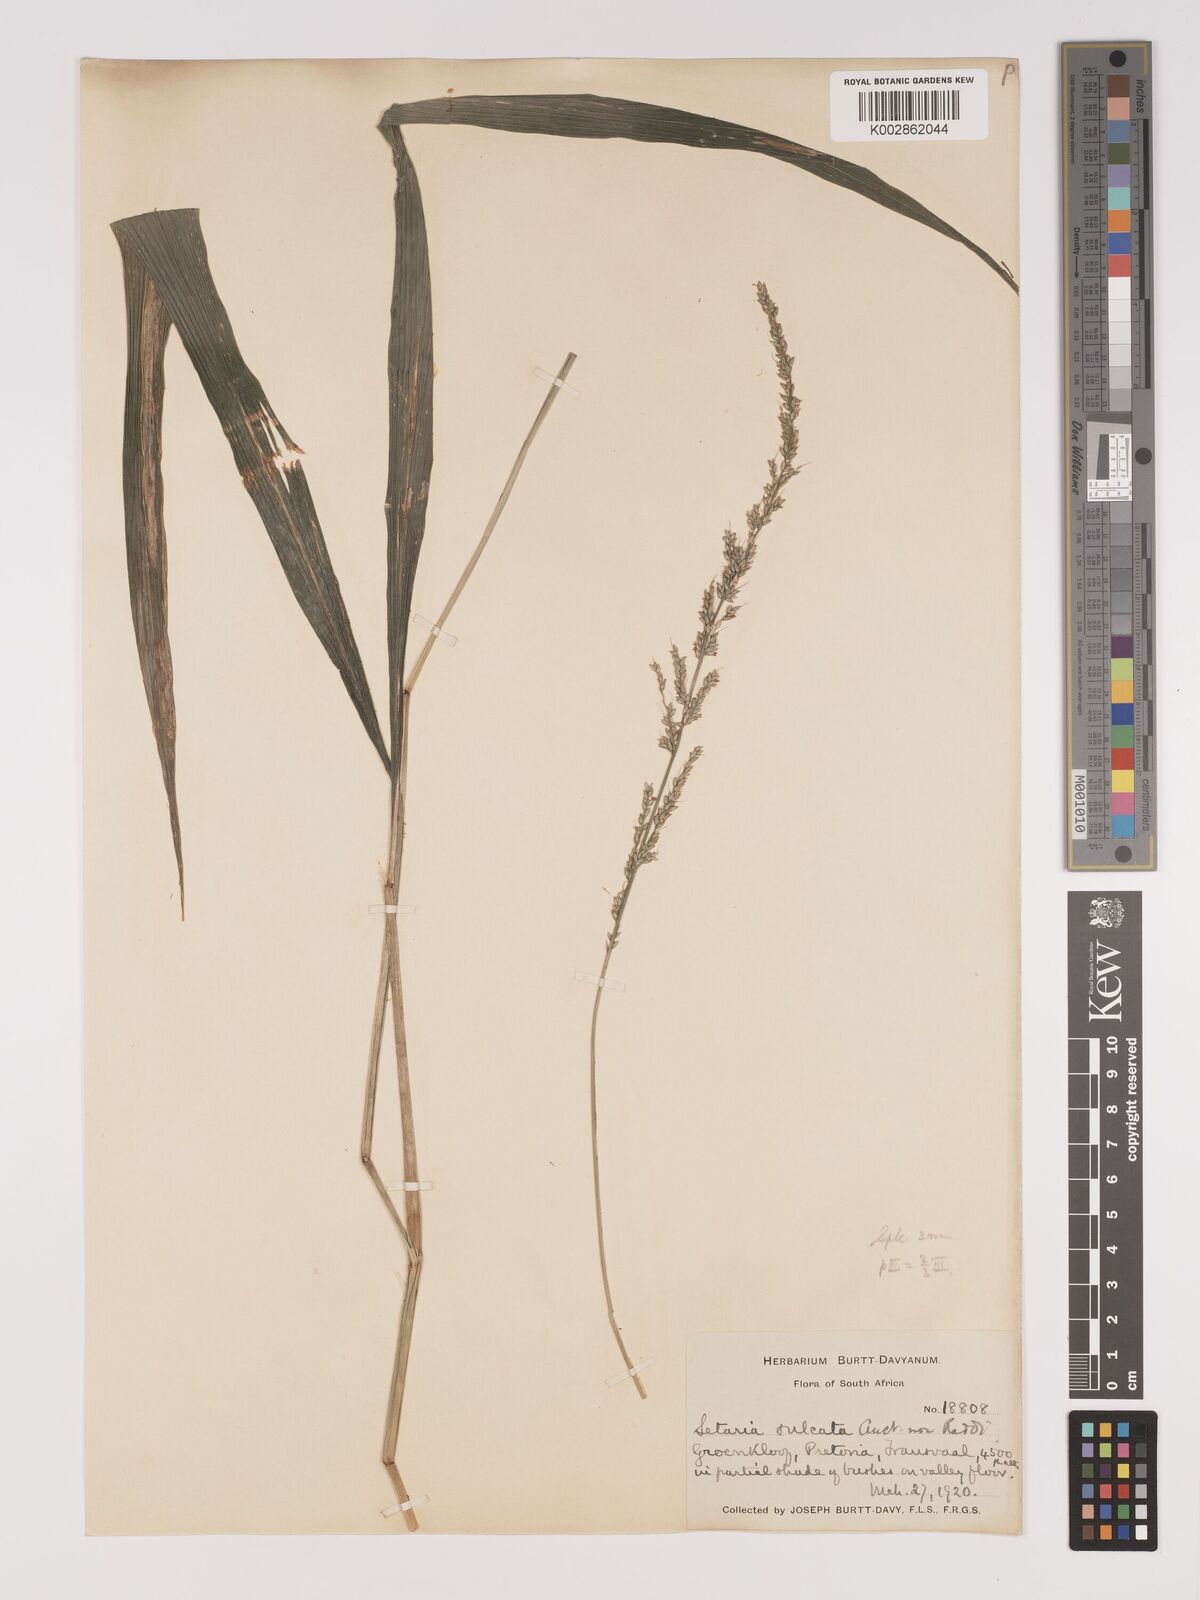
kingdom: Plantae
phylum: Tracheophyta
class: Liliopsida
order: Poales
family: Poaceae
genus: Setaria
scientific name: Setaria megaphylla
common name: Bigleaf bristlegrass
